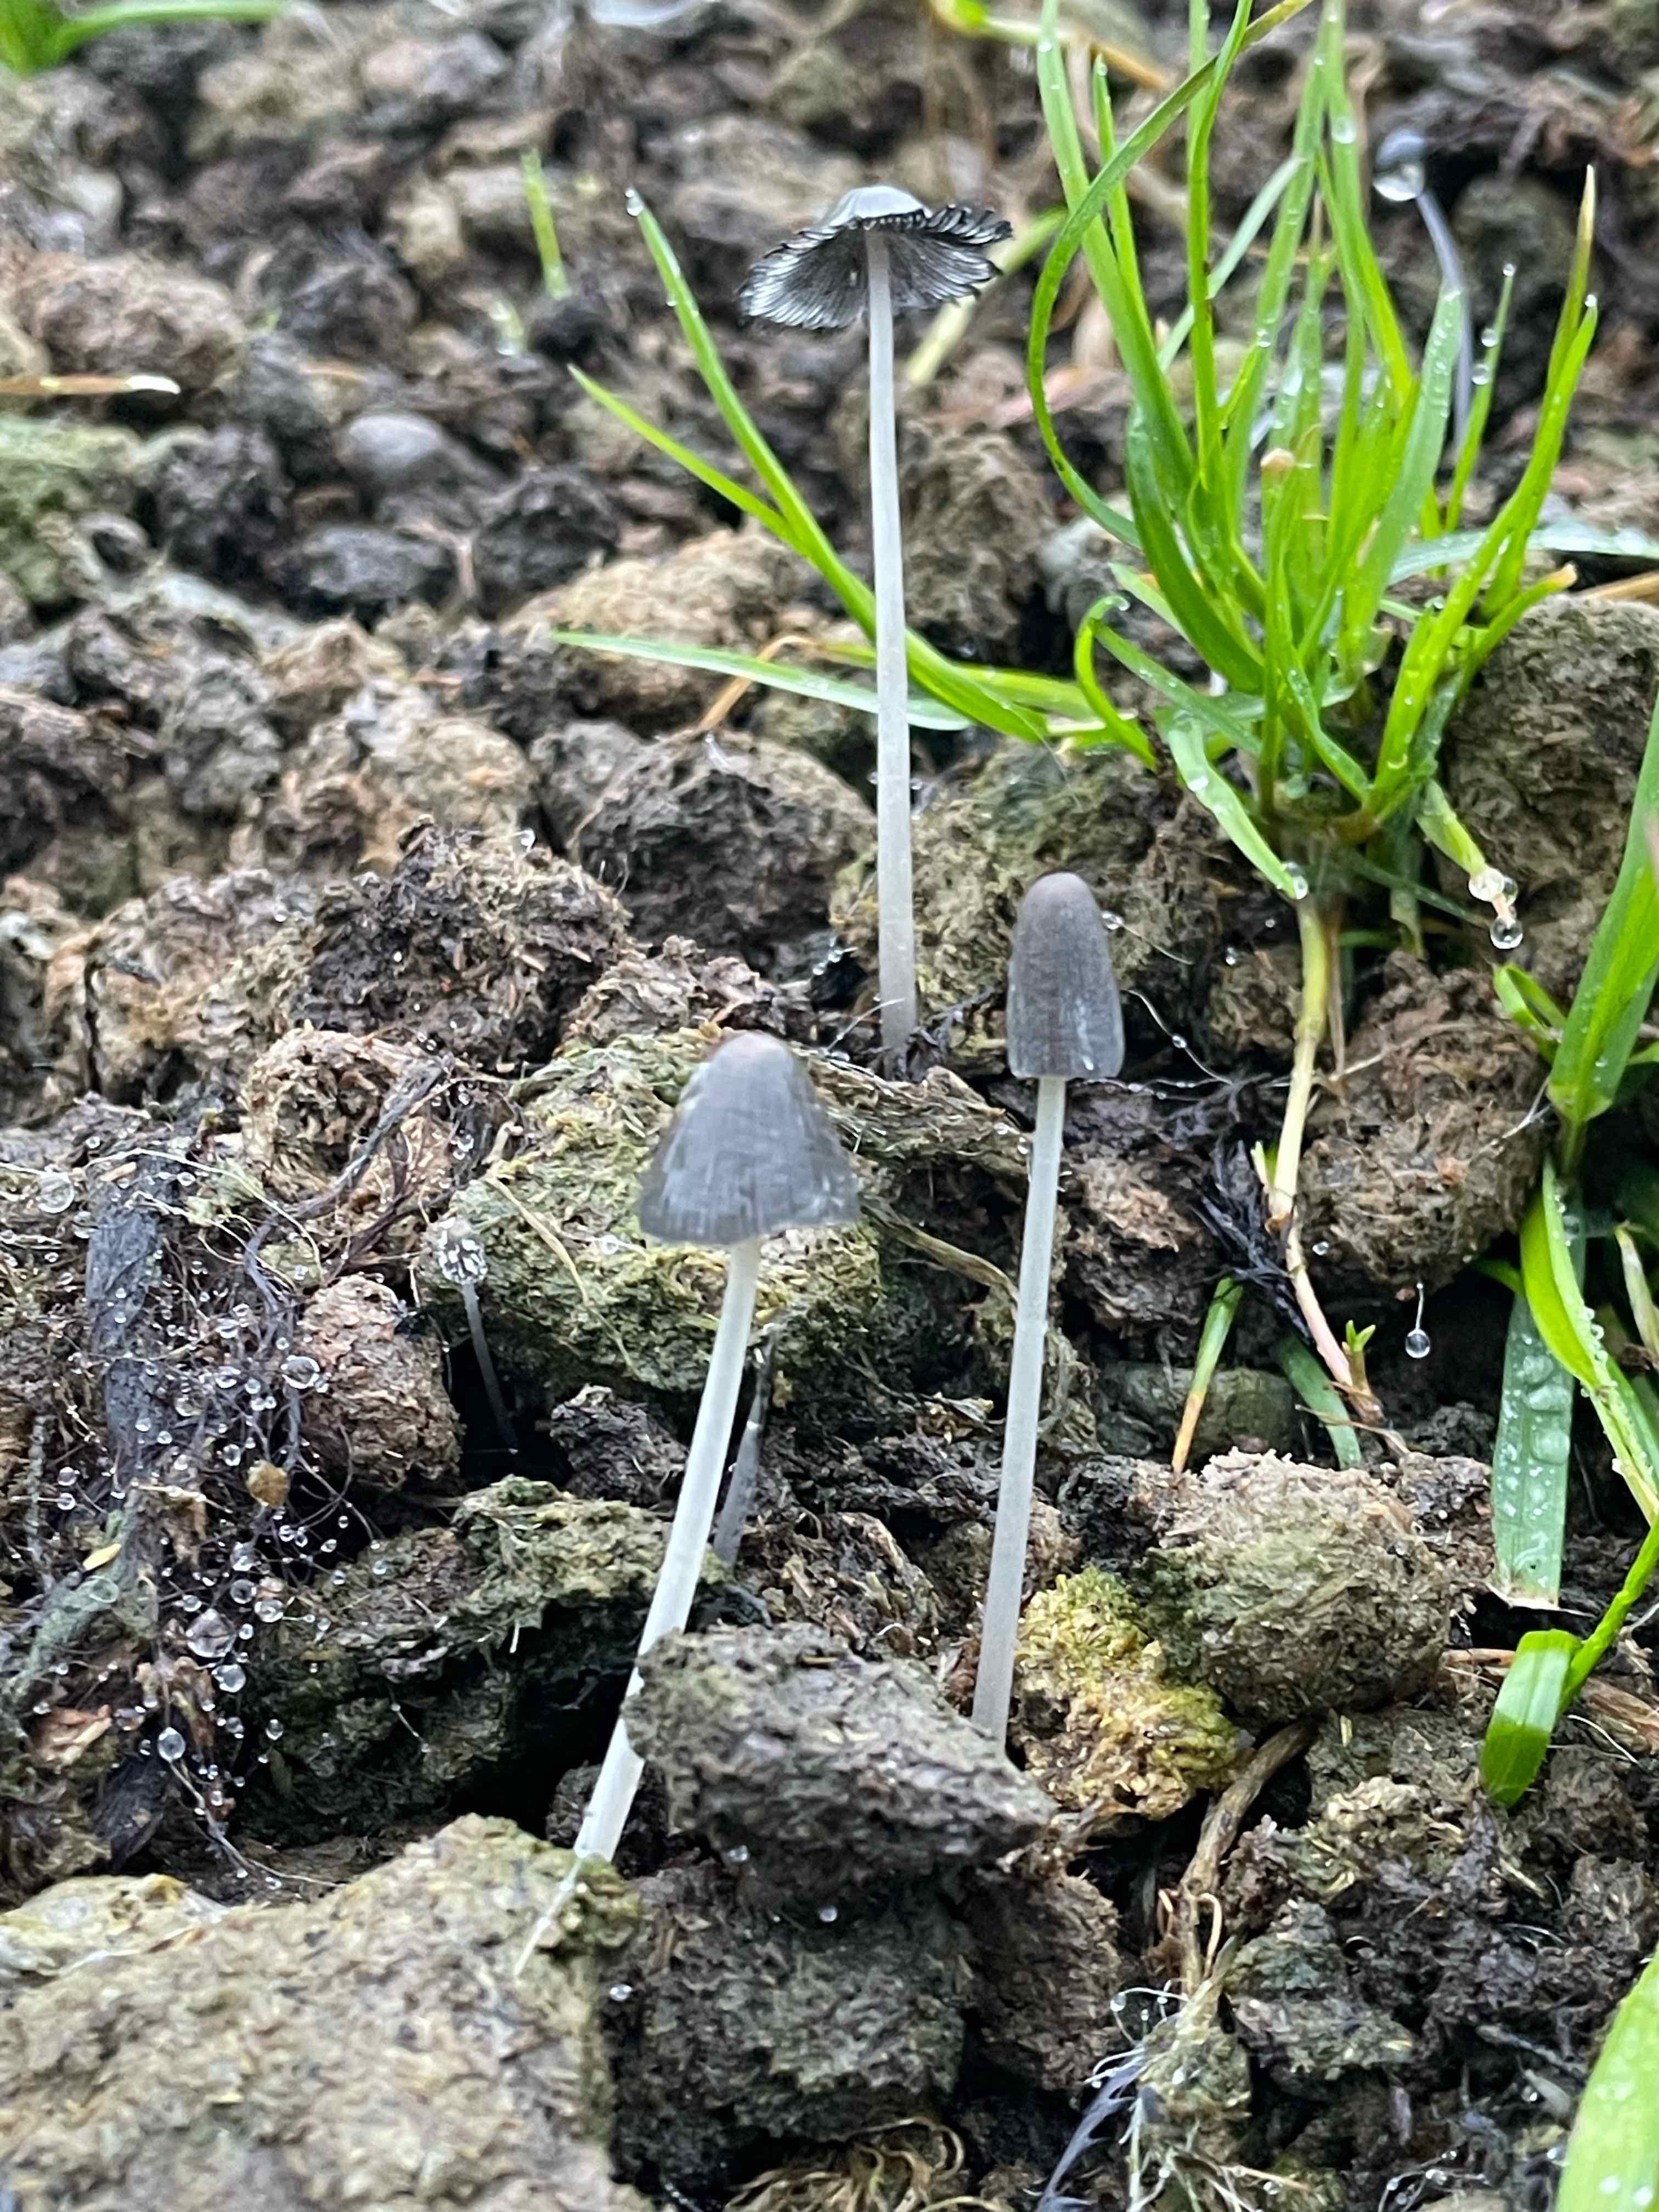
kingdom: Fungi
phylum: Basidiomycota
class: Agaricomycetes
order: Agaricales
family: Psathyrellaceae
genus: Coprinopsis
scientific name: Coprinopsis
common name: blækhat
